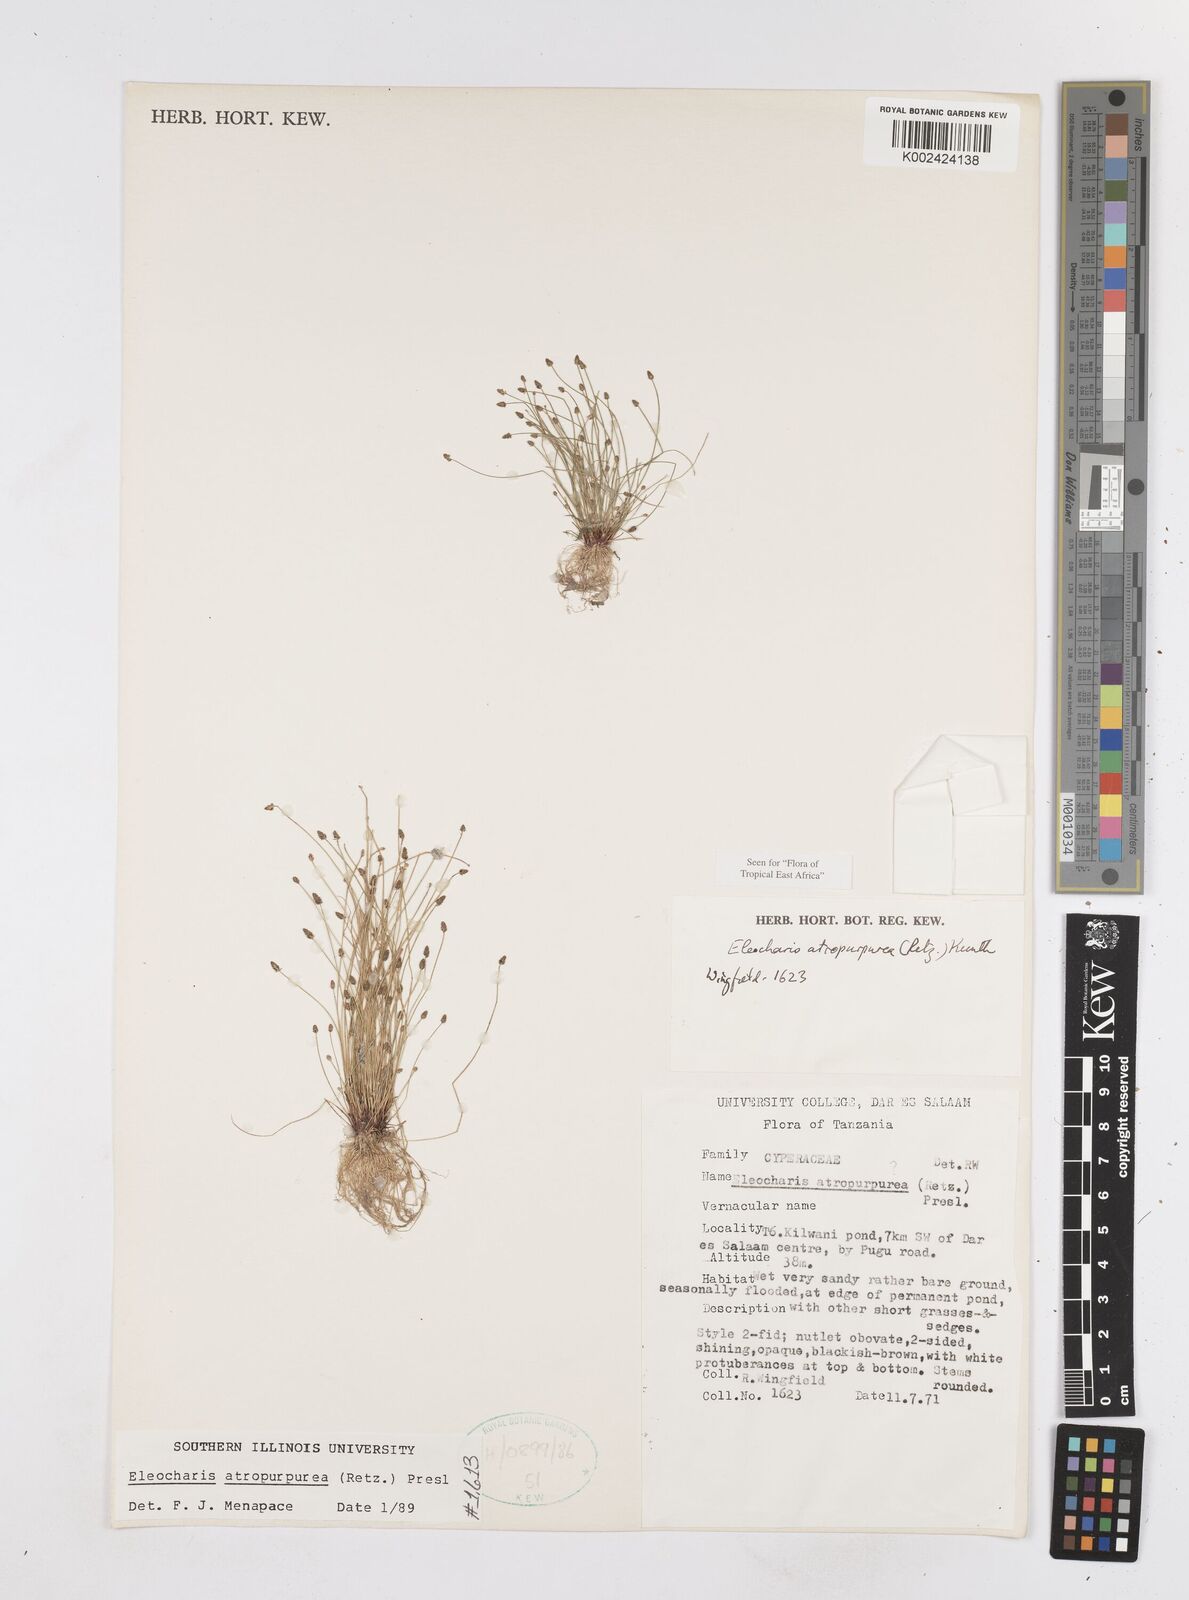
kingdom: Plantae
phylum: Tracheophyta
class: Liliopsida
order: Poales
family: Cyperaceae
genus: Eleocharis
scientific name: Eleocharis atropurpurea
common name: Purple spikerush
